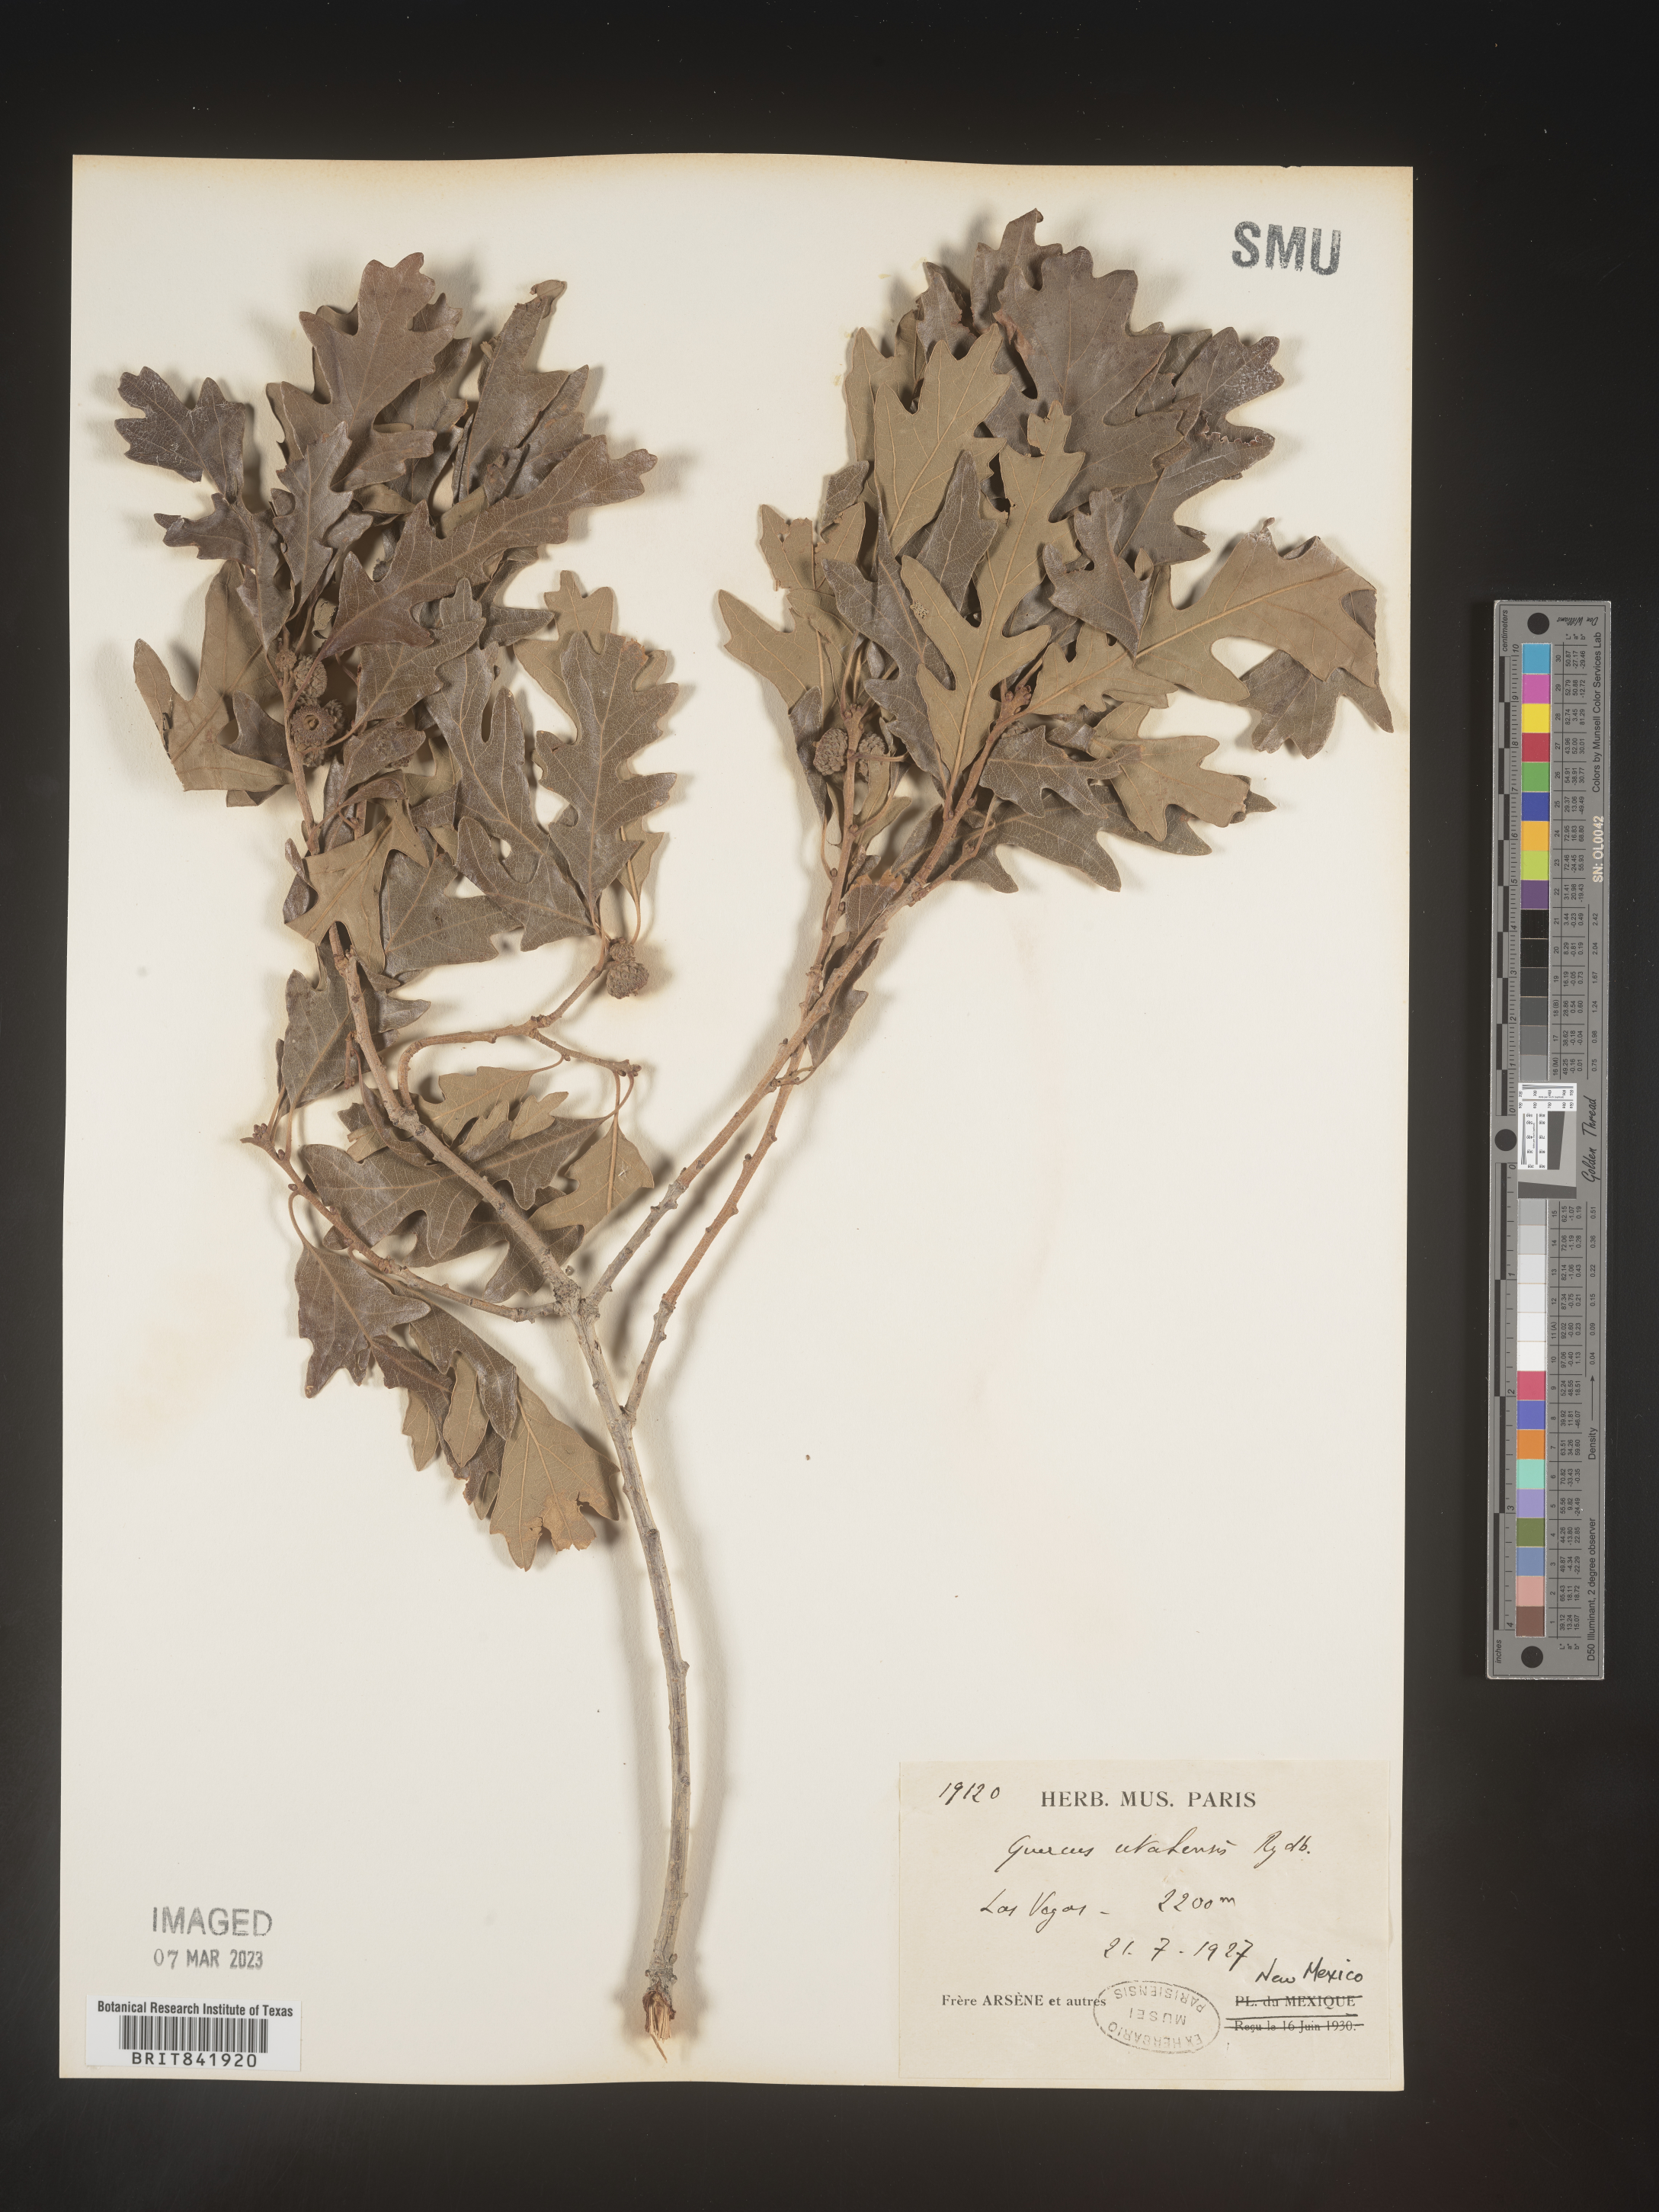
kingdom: Plantae
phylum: Tracheophyta
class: Magnoliopsida
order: Fagales
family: Fagaceae
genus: Quercus
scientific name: Quercus gambelii
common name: Gambel oak
